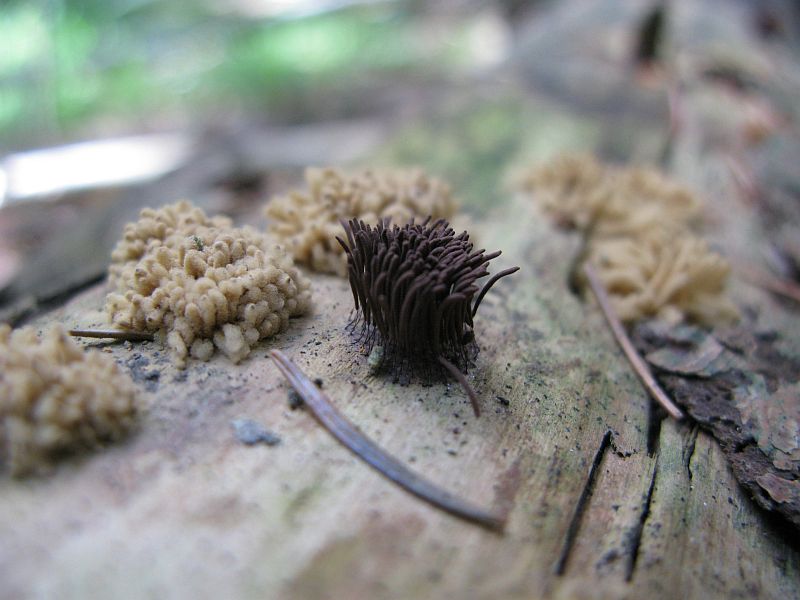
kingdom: Protozoa
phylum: Mycetozoa
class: Myxomycetes
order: Trichiales
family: Arcyriaceae
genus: Arcyria
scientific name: Arcyria obvelata
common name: okkergul skålsvøb
